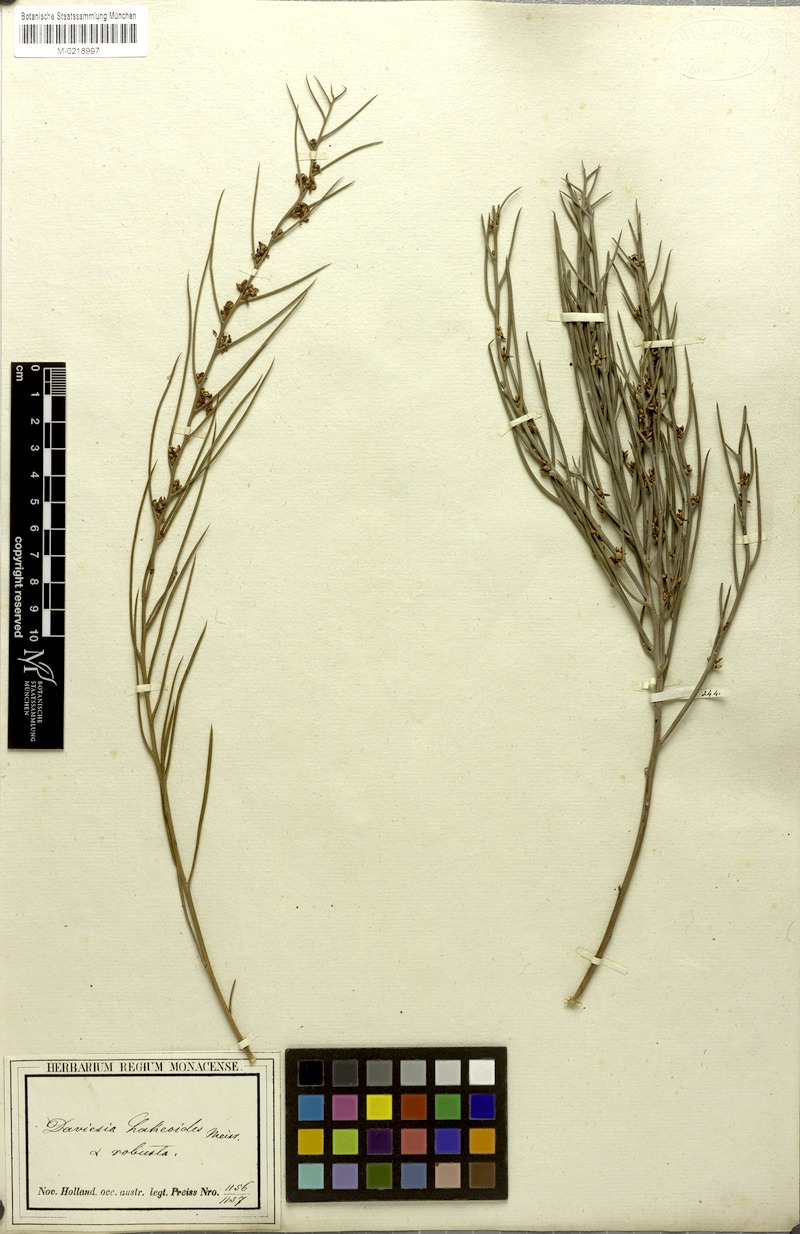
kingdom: Plantae
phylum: Tracheophyta
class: Magnoliopsida
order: Fabales
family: Fabaceae
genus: Daviesia
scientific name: Daviesia hakeoides
